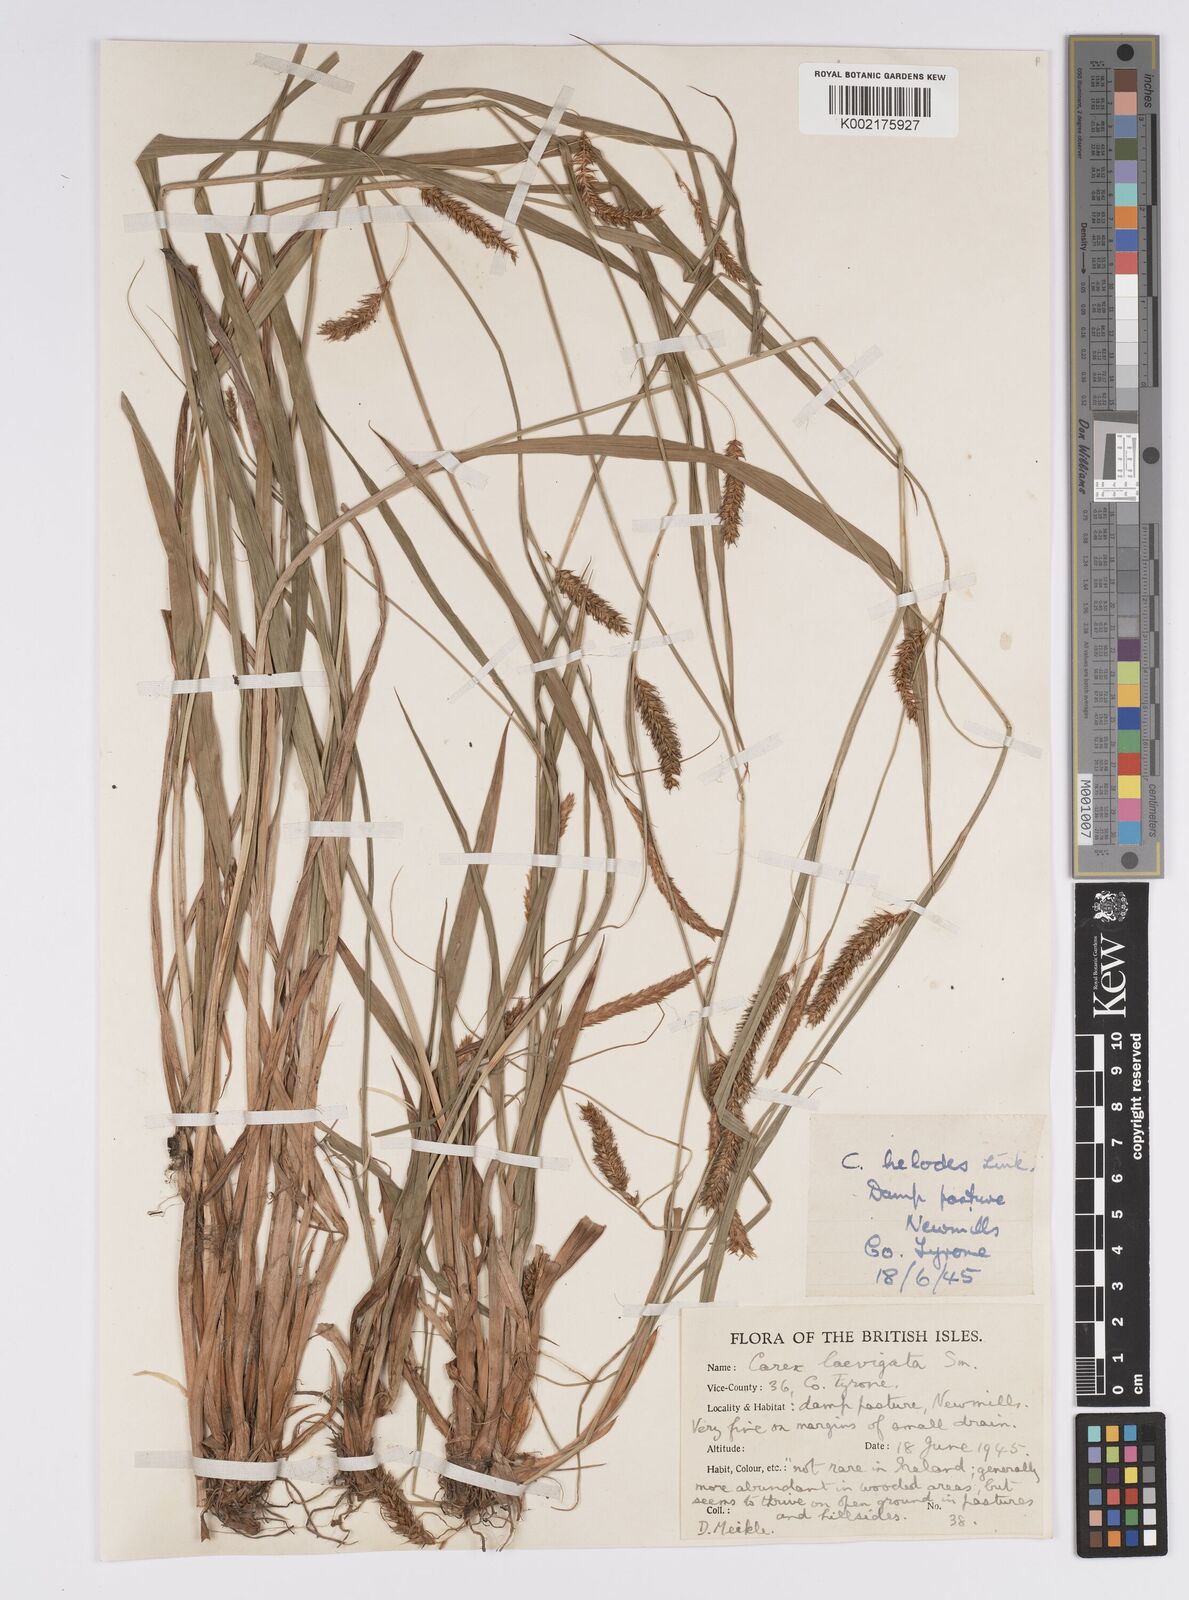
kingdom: Plantae
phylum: Tracheophyta
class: Liliopsida
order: Poales
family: Cyperaceae
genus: Carex
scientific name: Carex laevigata
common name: Smooth-stalked sedge
